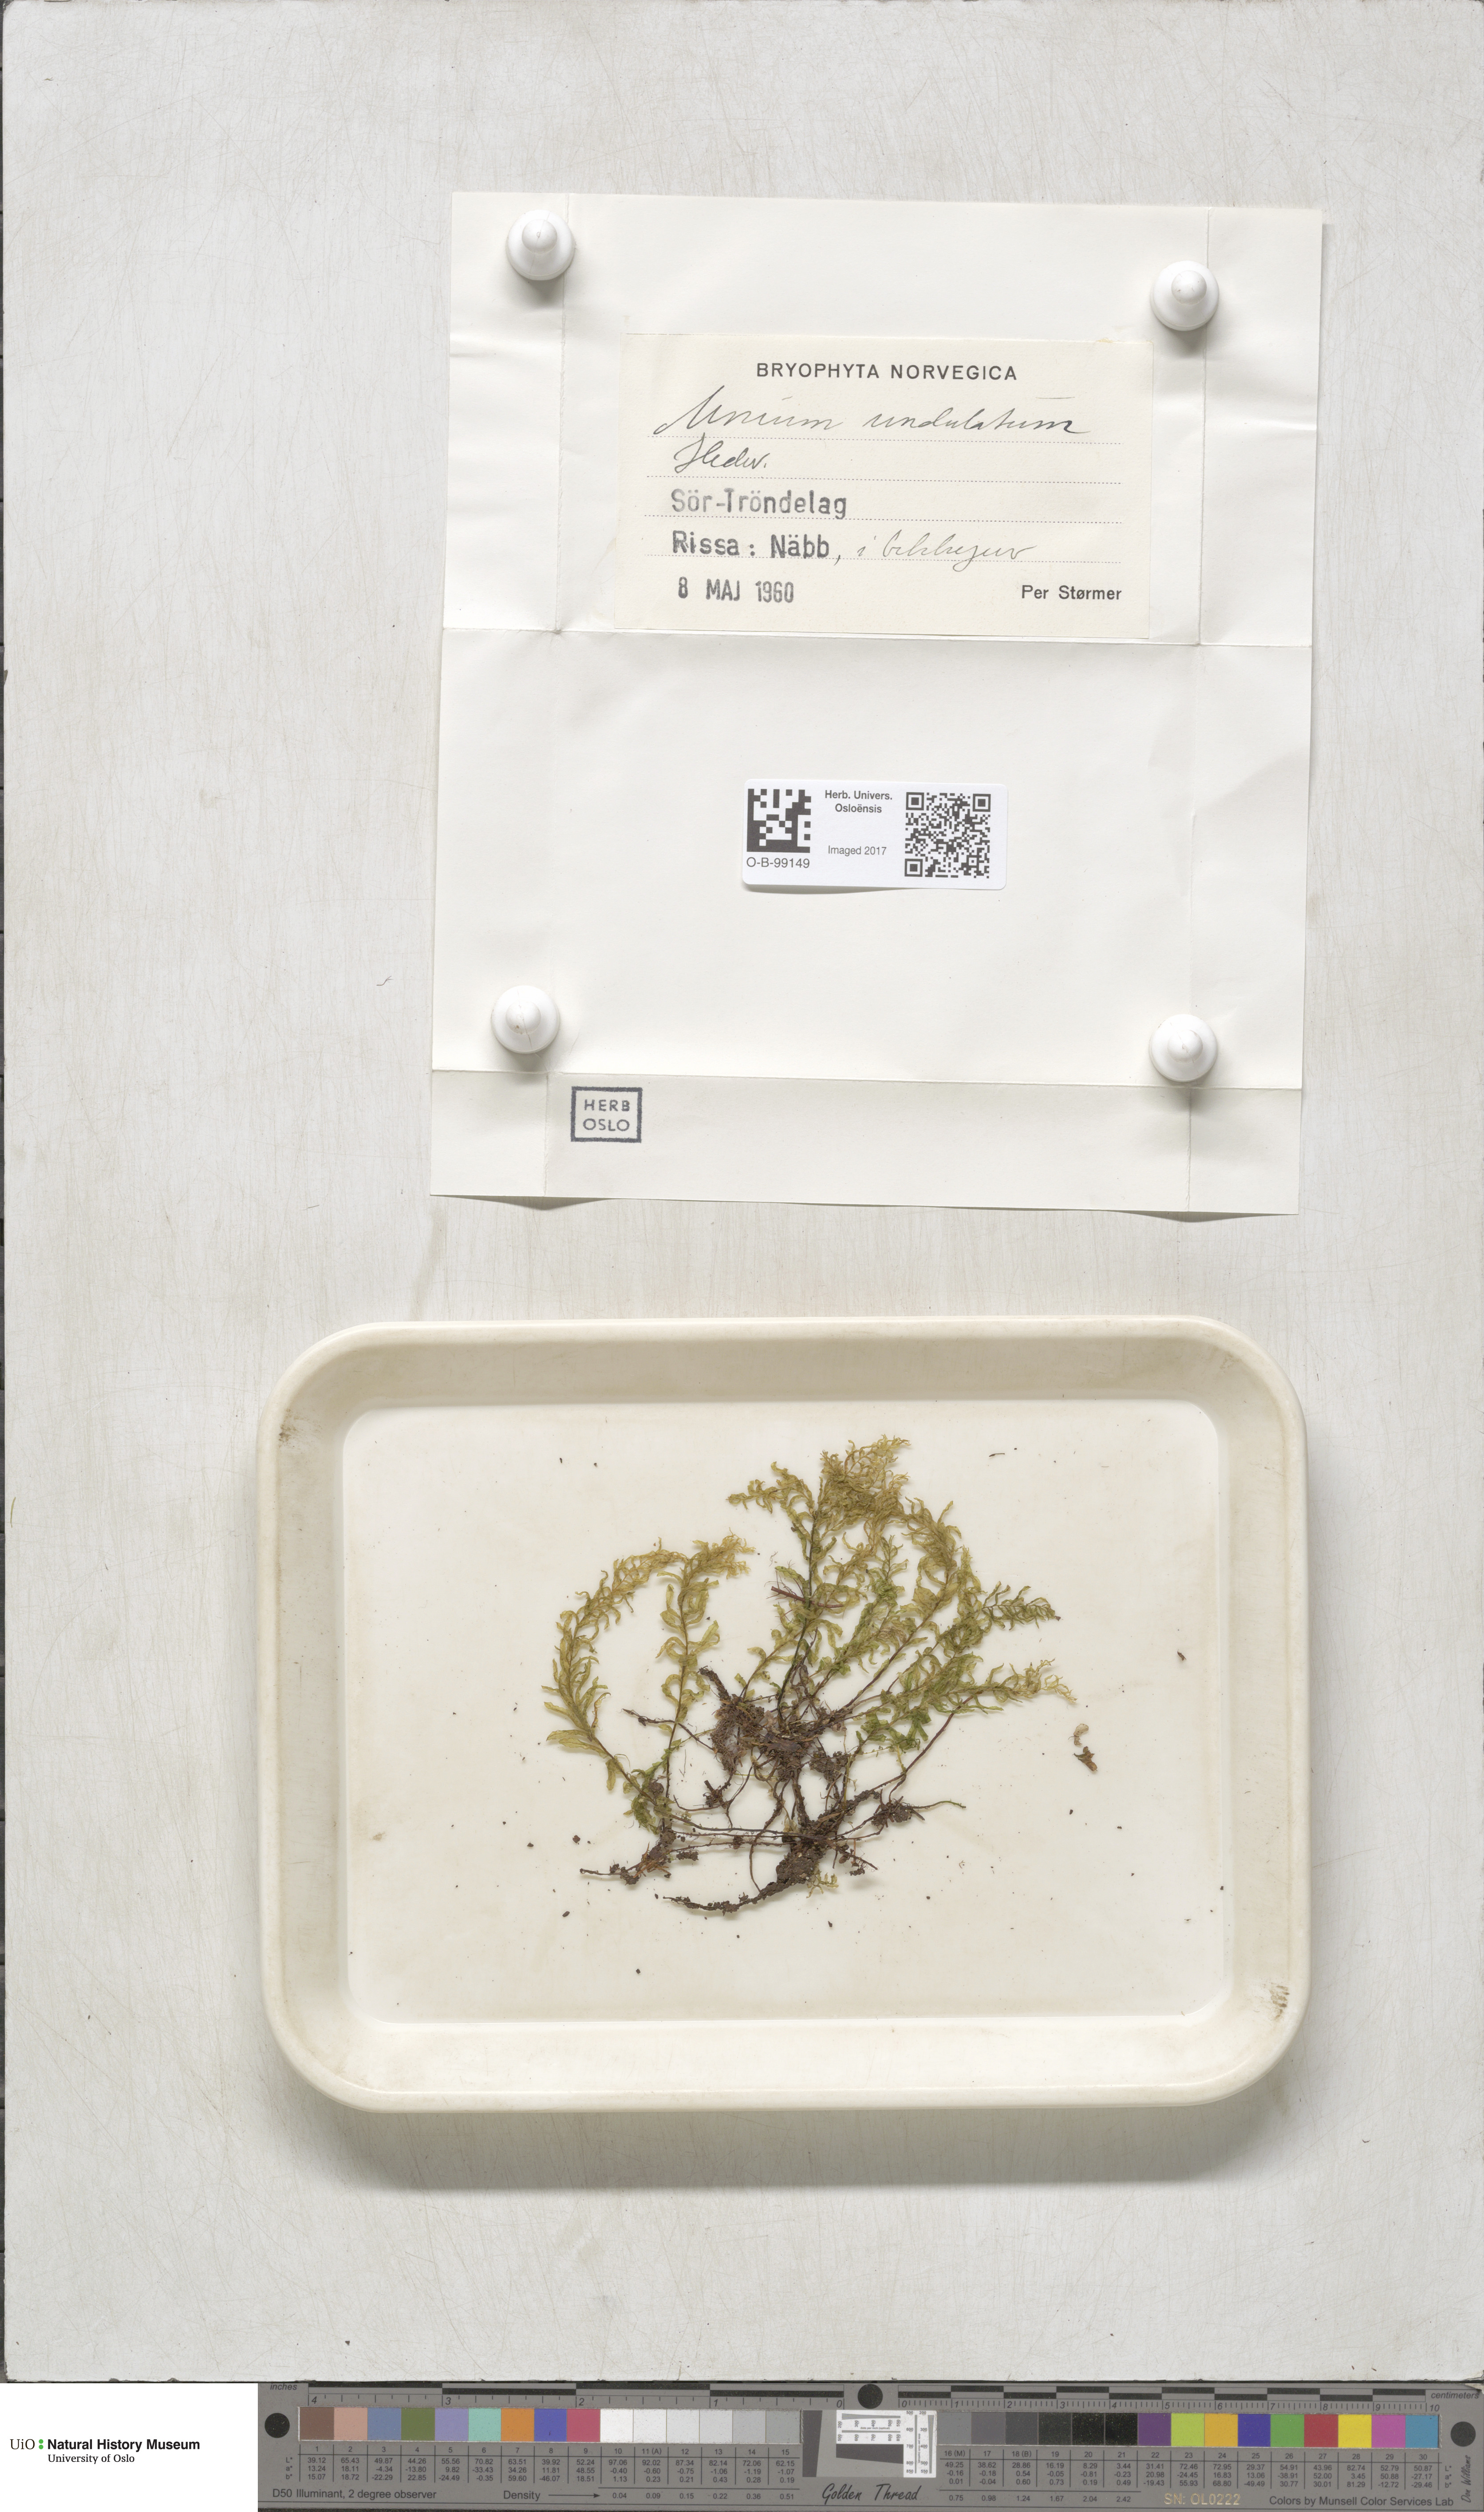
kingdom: Plantae
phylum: Bryophyta
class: Bryopsida
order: Bryales
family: Mniaceae
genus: Plagiomnium
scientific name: Plagiomnium undulatum
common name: Hart's-tongue thyme-moss
